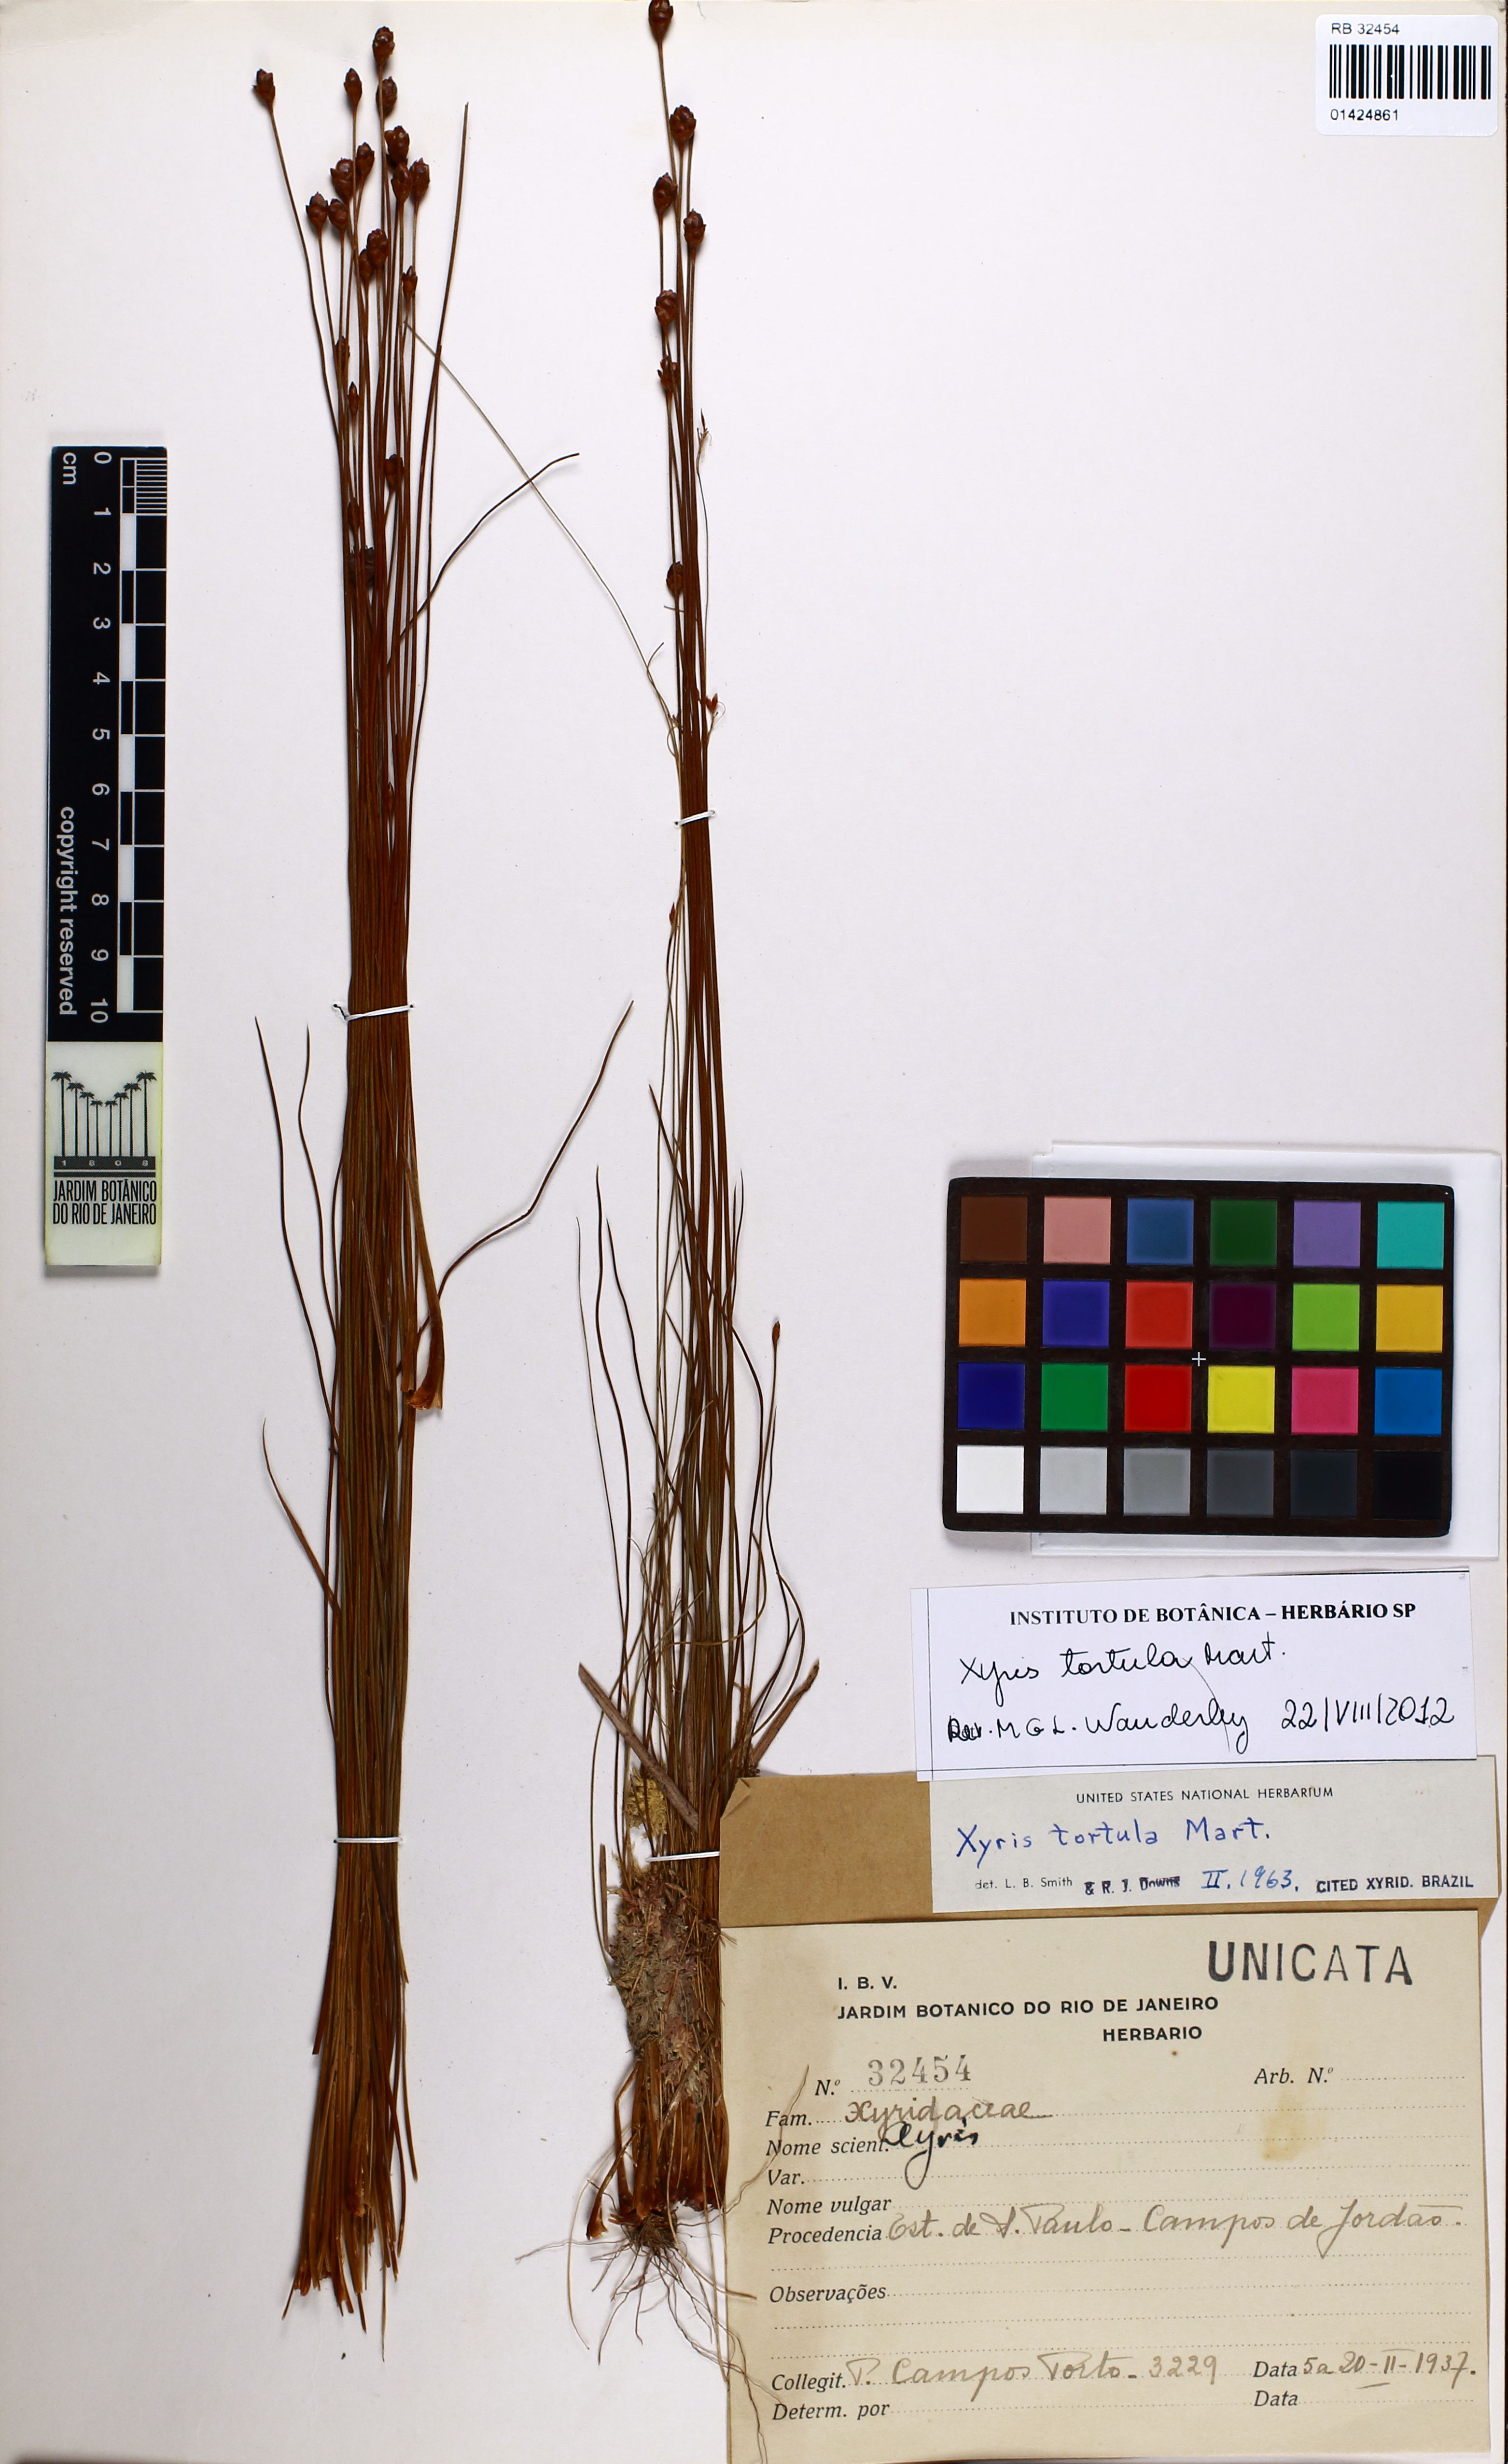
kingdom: Plantae
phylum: Tracheophyta
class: Liliopsida
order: Poales
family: Xyridaceae
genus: Xyris
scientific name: Xyris tortula
